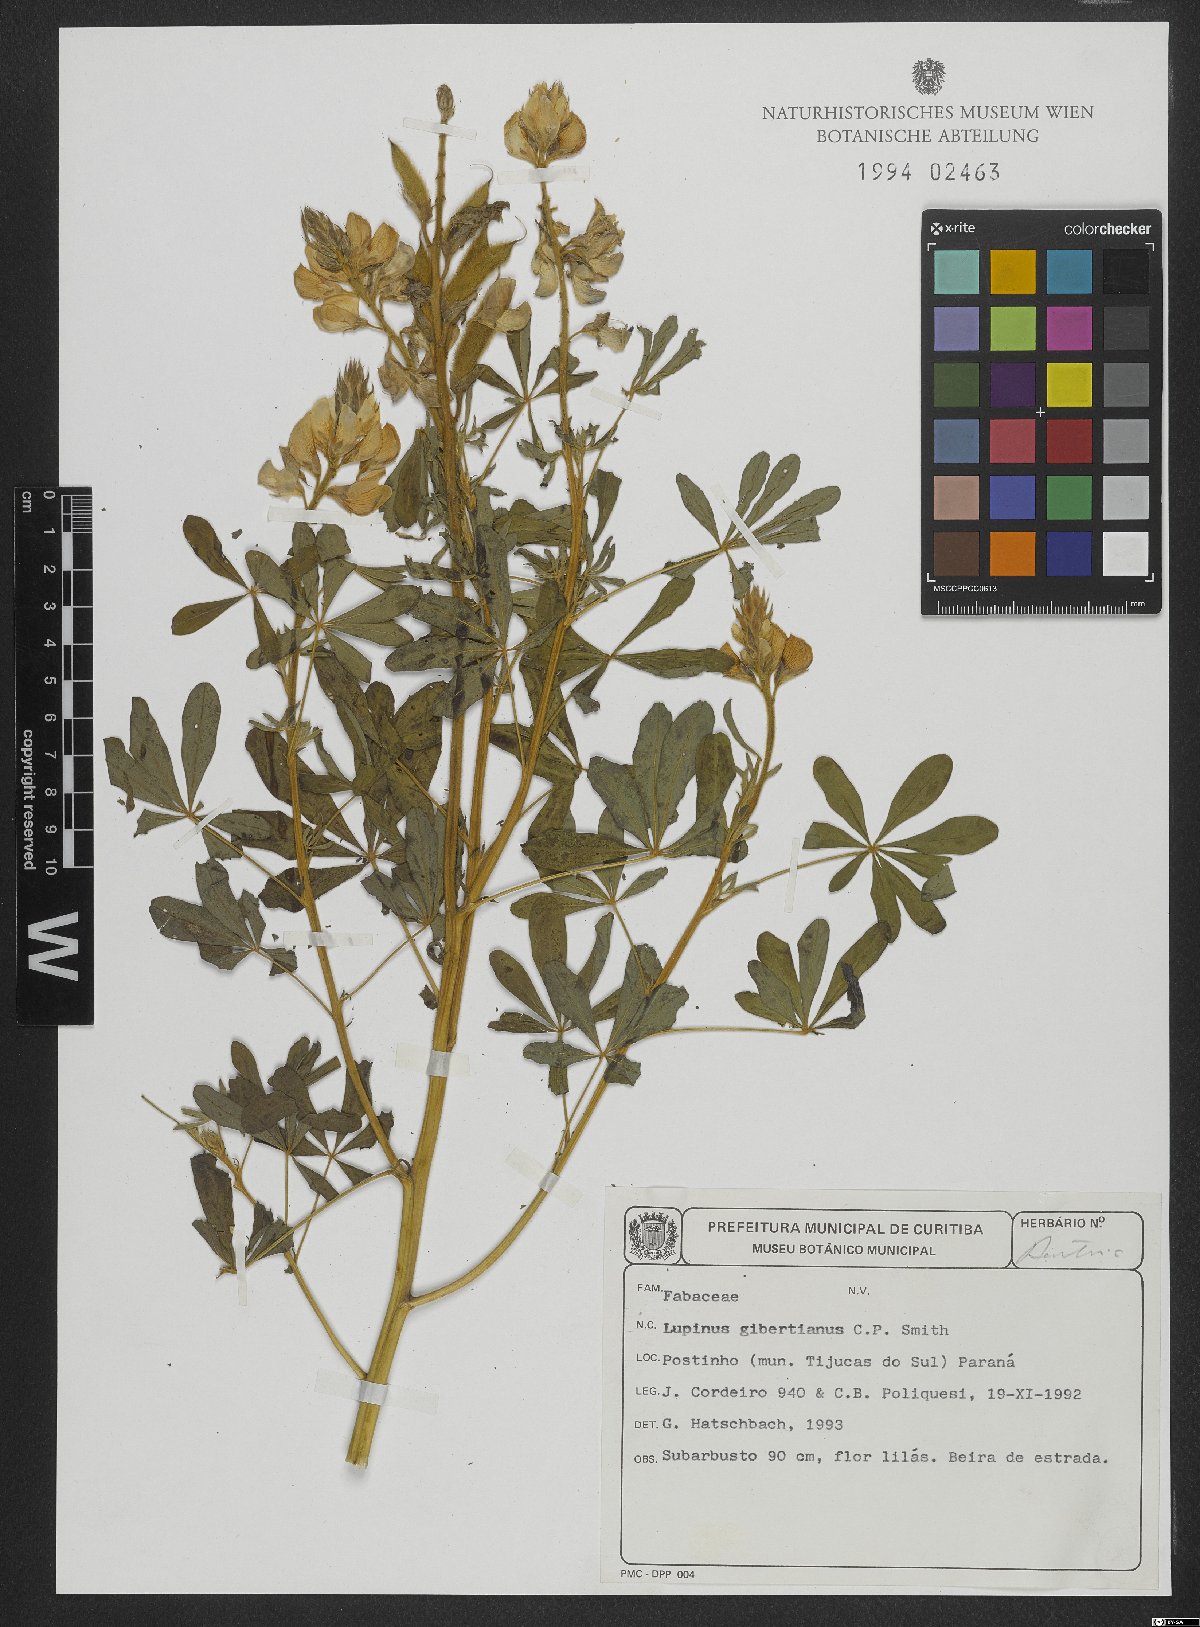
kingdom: Plantae
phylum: Tracheophyta
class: Magnoliopsida
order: Fabales
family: Fabaceae
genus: Lupinus
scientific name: Lupinus gibertianus
